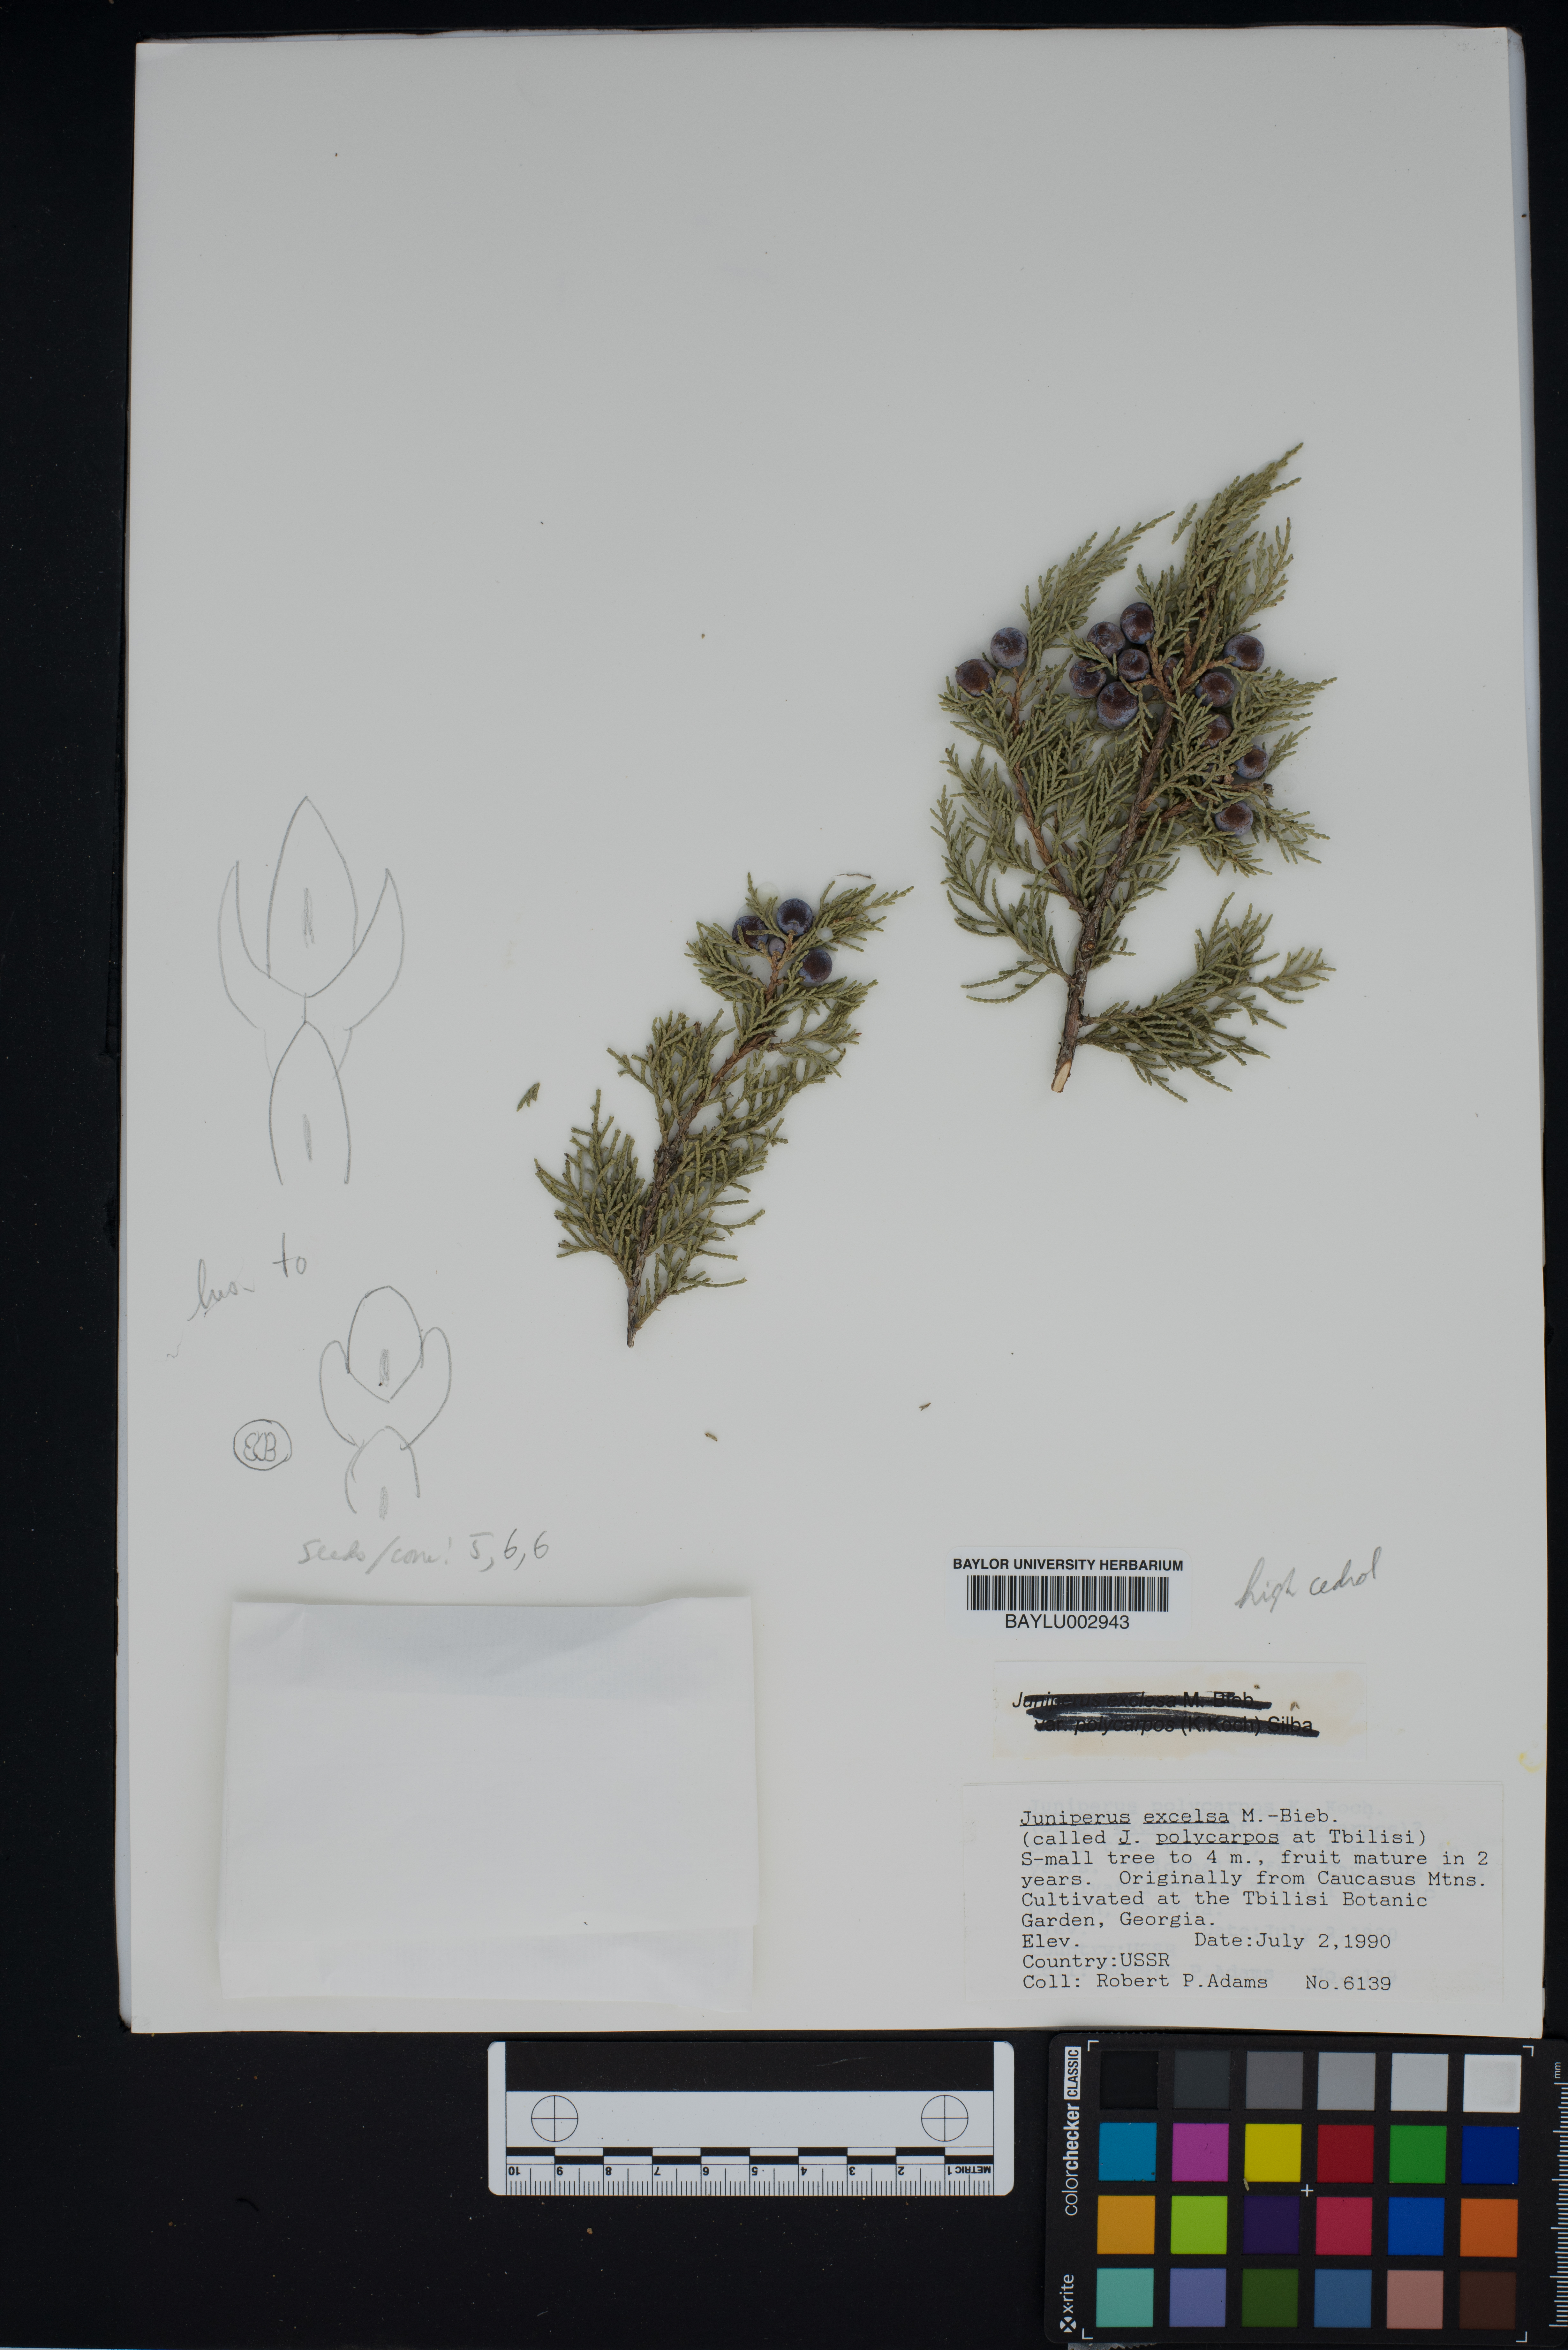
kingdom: Plantae
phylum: Tracheophyta
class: Pinopsida
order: Pinales
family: Cupressaceae
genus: Juniperus
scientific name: Juniperus excelsa
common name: Crimean juniper
